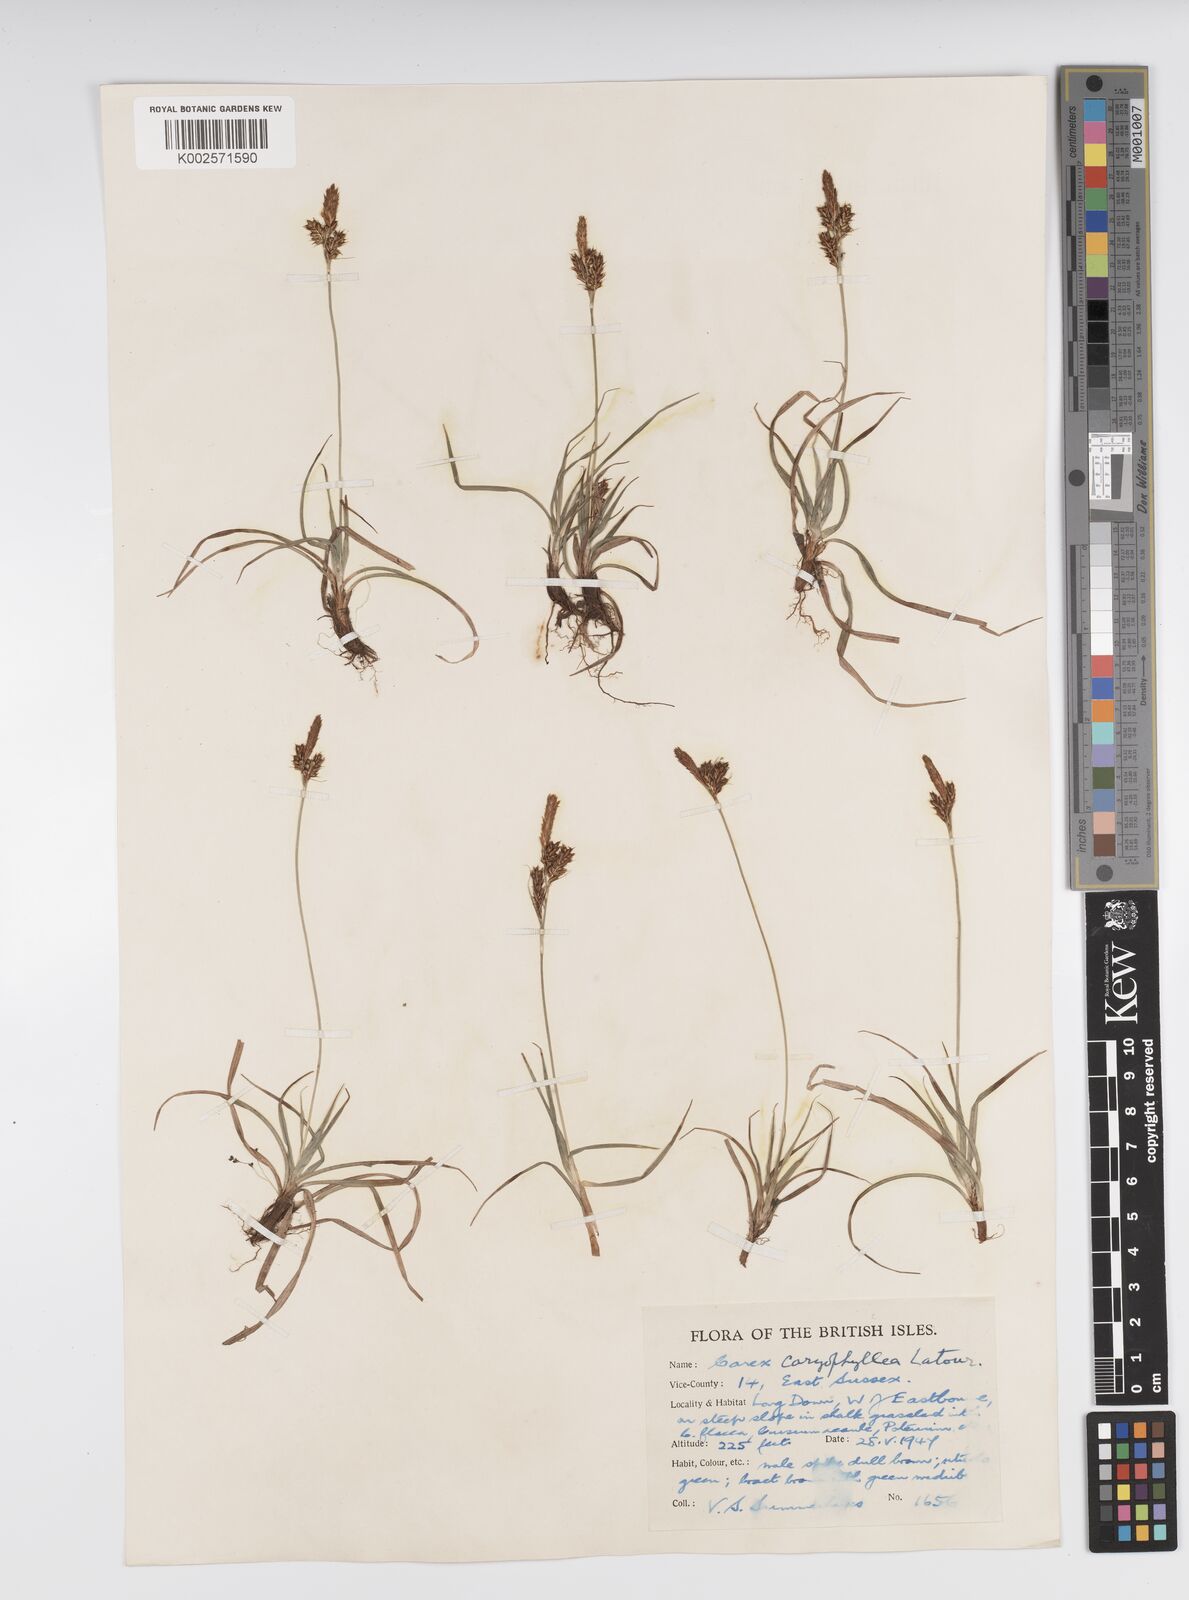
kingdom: Plantae
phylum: Tracheophyta
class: Liliopsida
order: Poales
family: Cyperaceae
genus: Carex
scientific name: Carex caryophyllea
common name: Spring sedge
